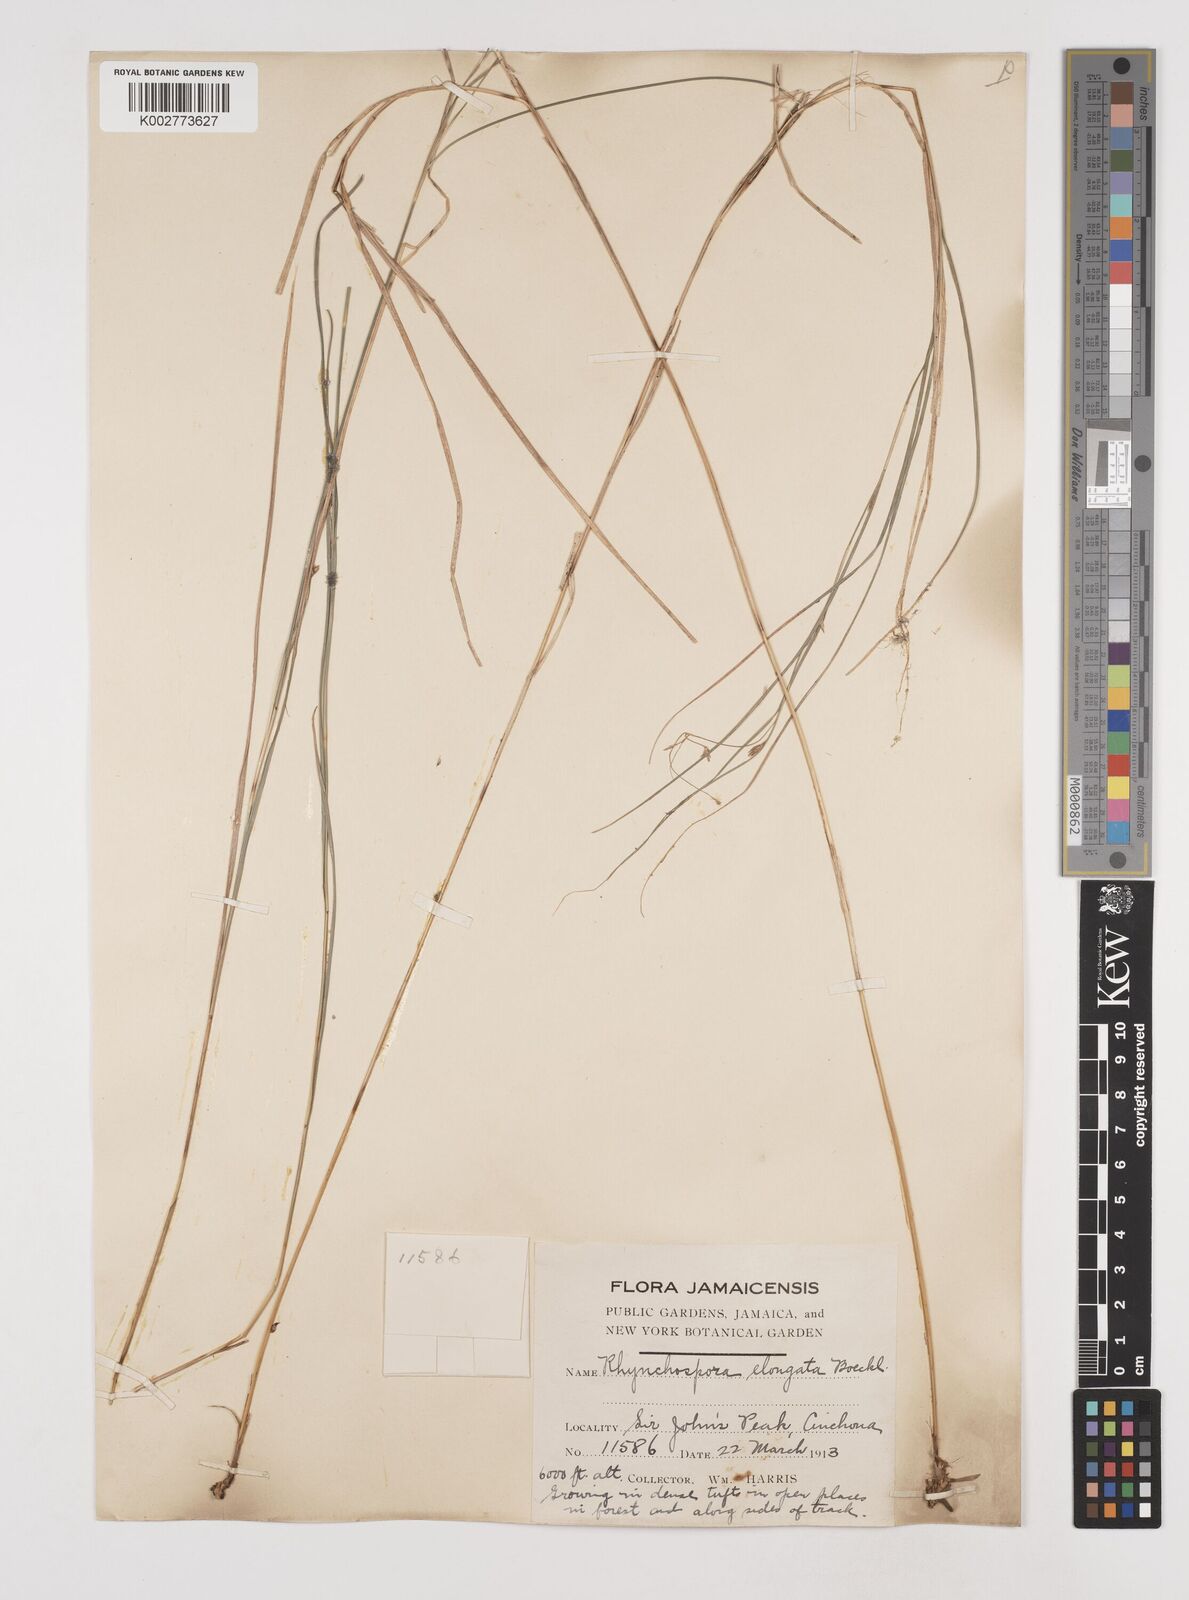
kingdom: Plantae
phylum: Tracheophyta
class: Liliopsida
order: Poales
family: Cyperaceae
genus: Rhynchospora
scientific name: Rhynchospora biflora
